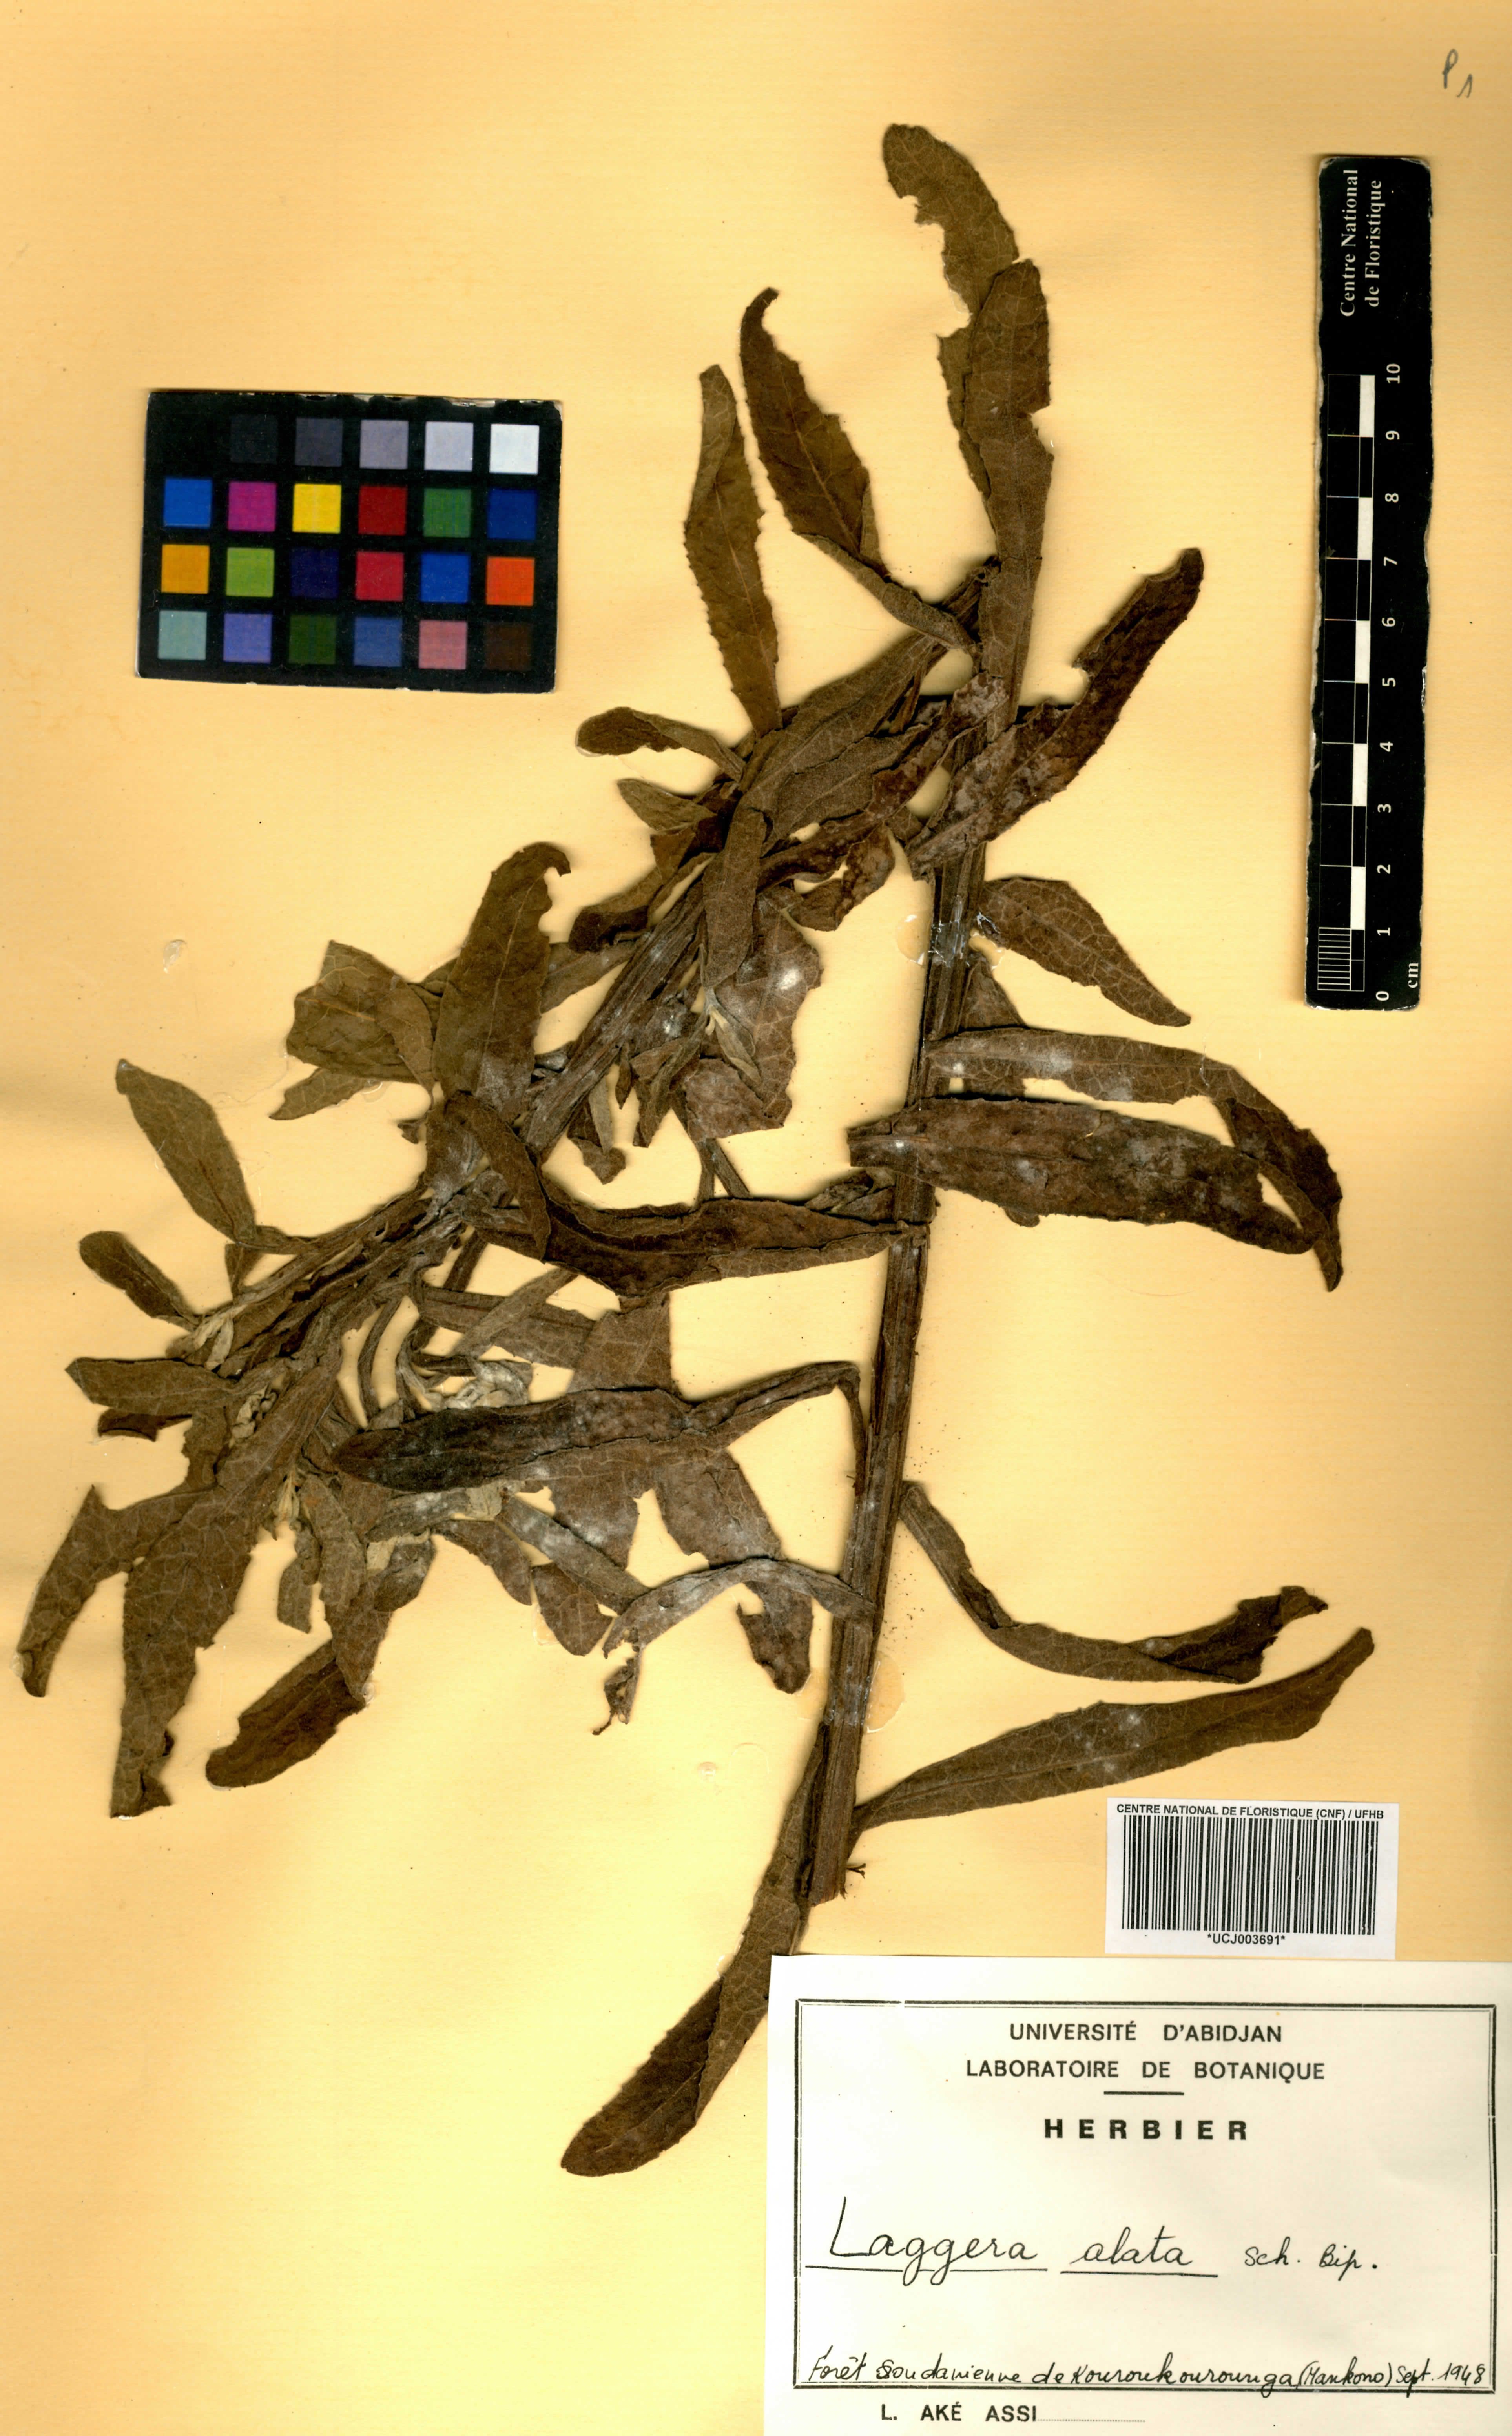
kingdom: Plantae
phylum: Tracheophyta
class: Magnoliopsida
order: Asterales
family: Asteraceae
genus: Laggera
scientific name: Laggera alata
